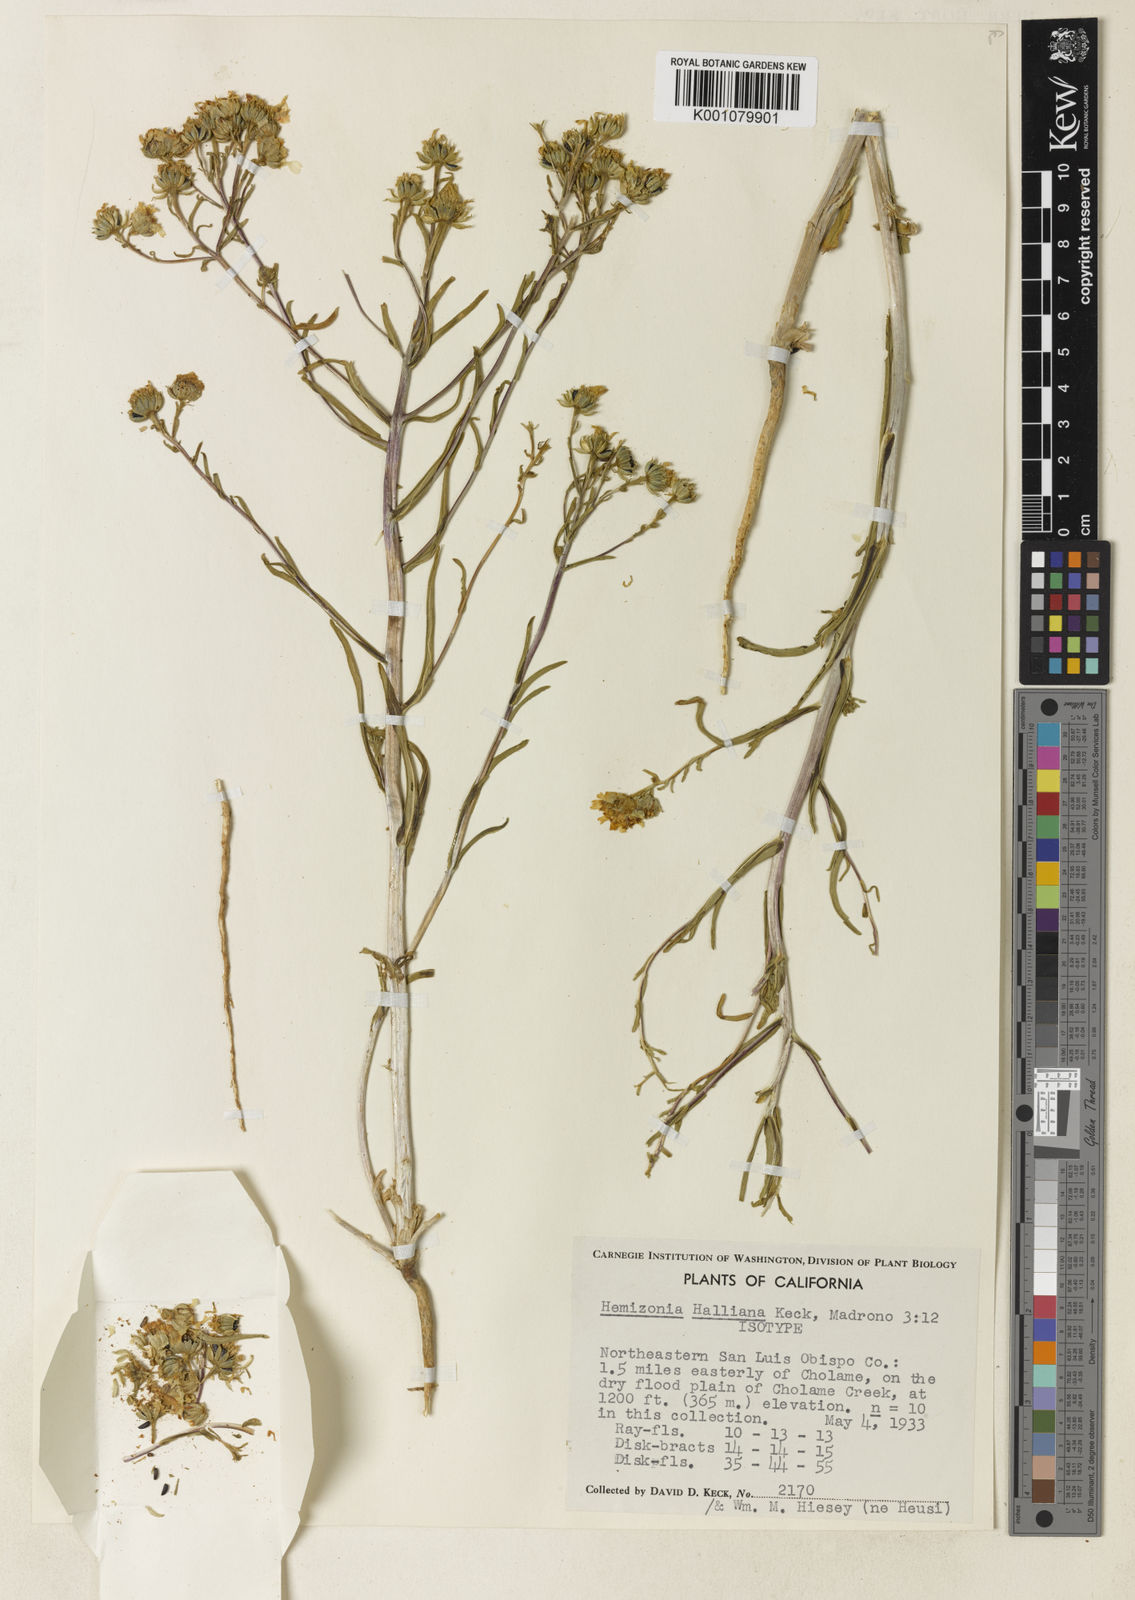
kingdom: Plantae
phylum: Tracheophyta
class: Magnoliopsida
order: Asterales
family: Asteraceae
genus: Deinandra
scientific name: Deinandra halliana
